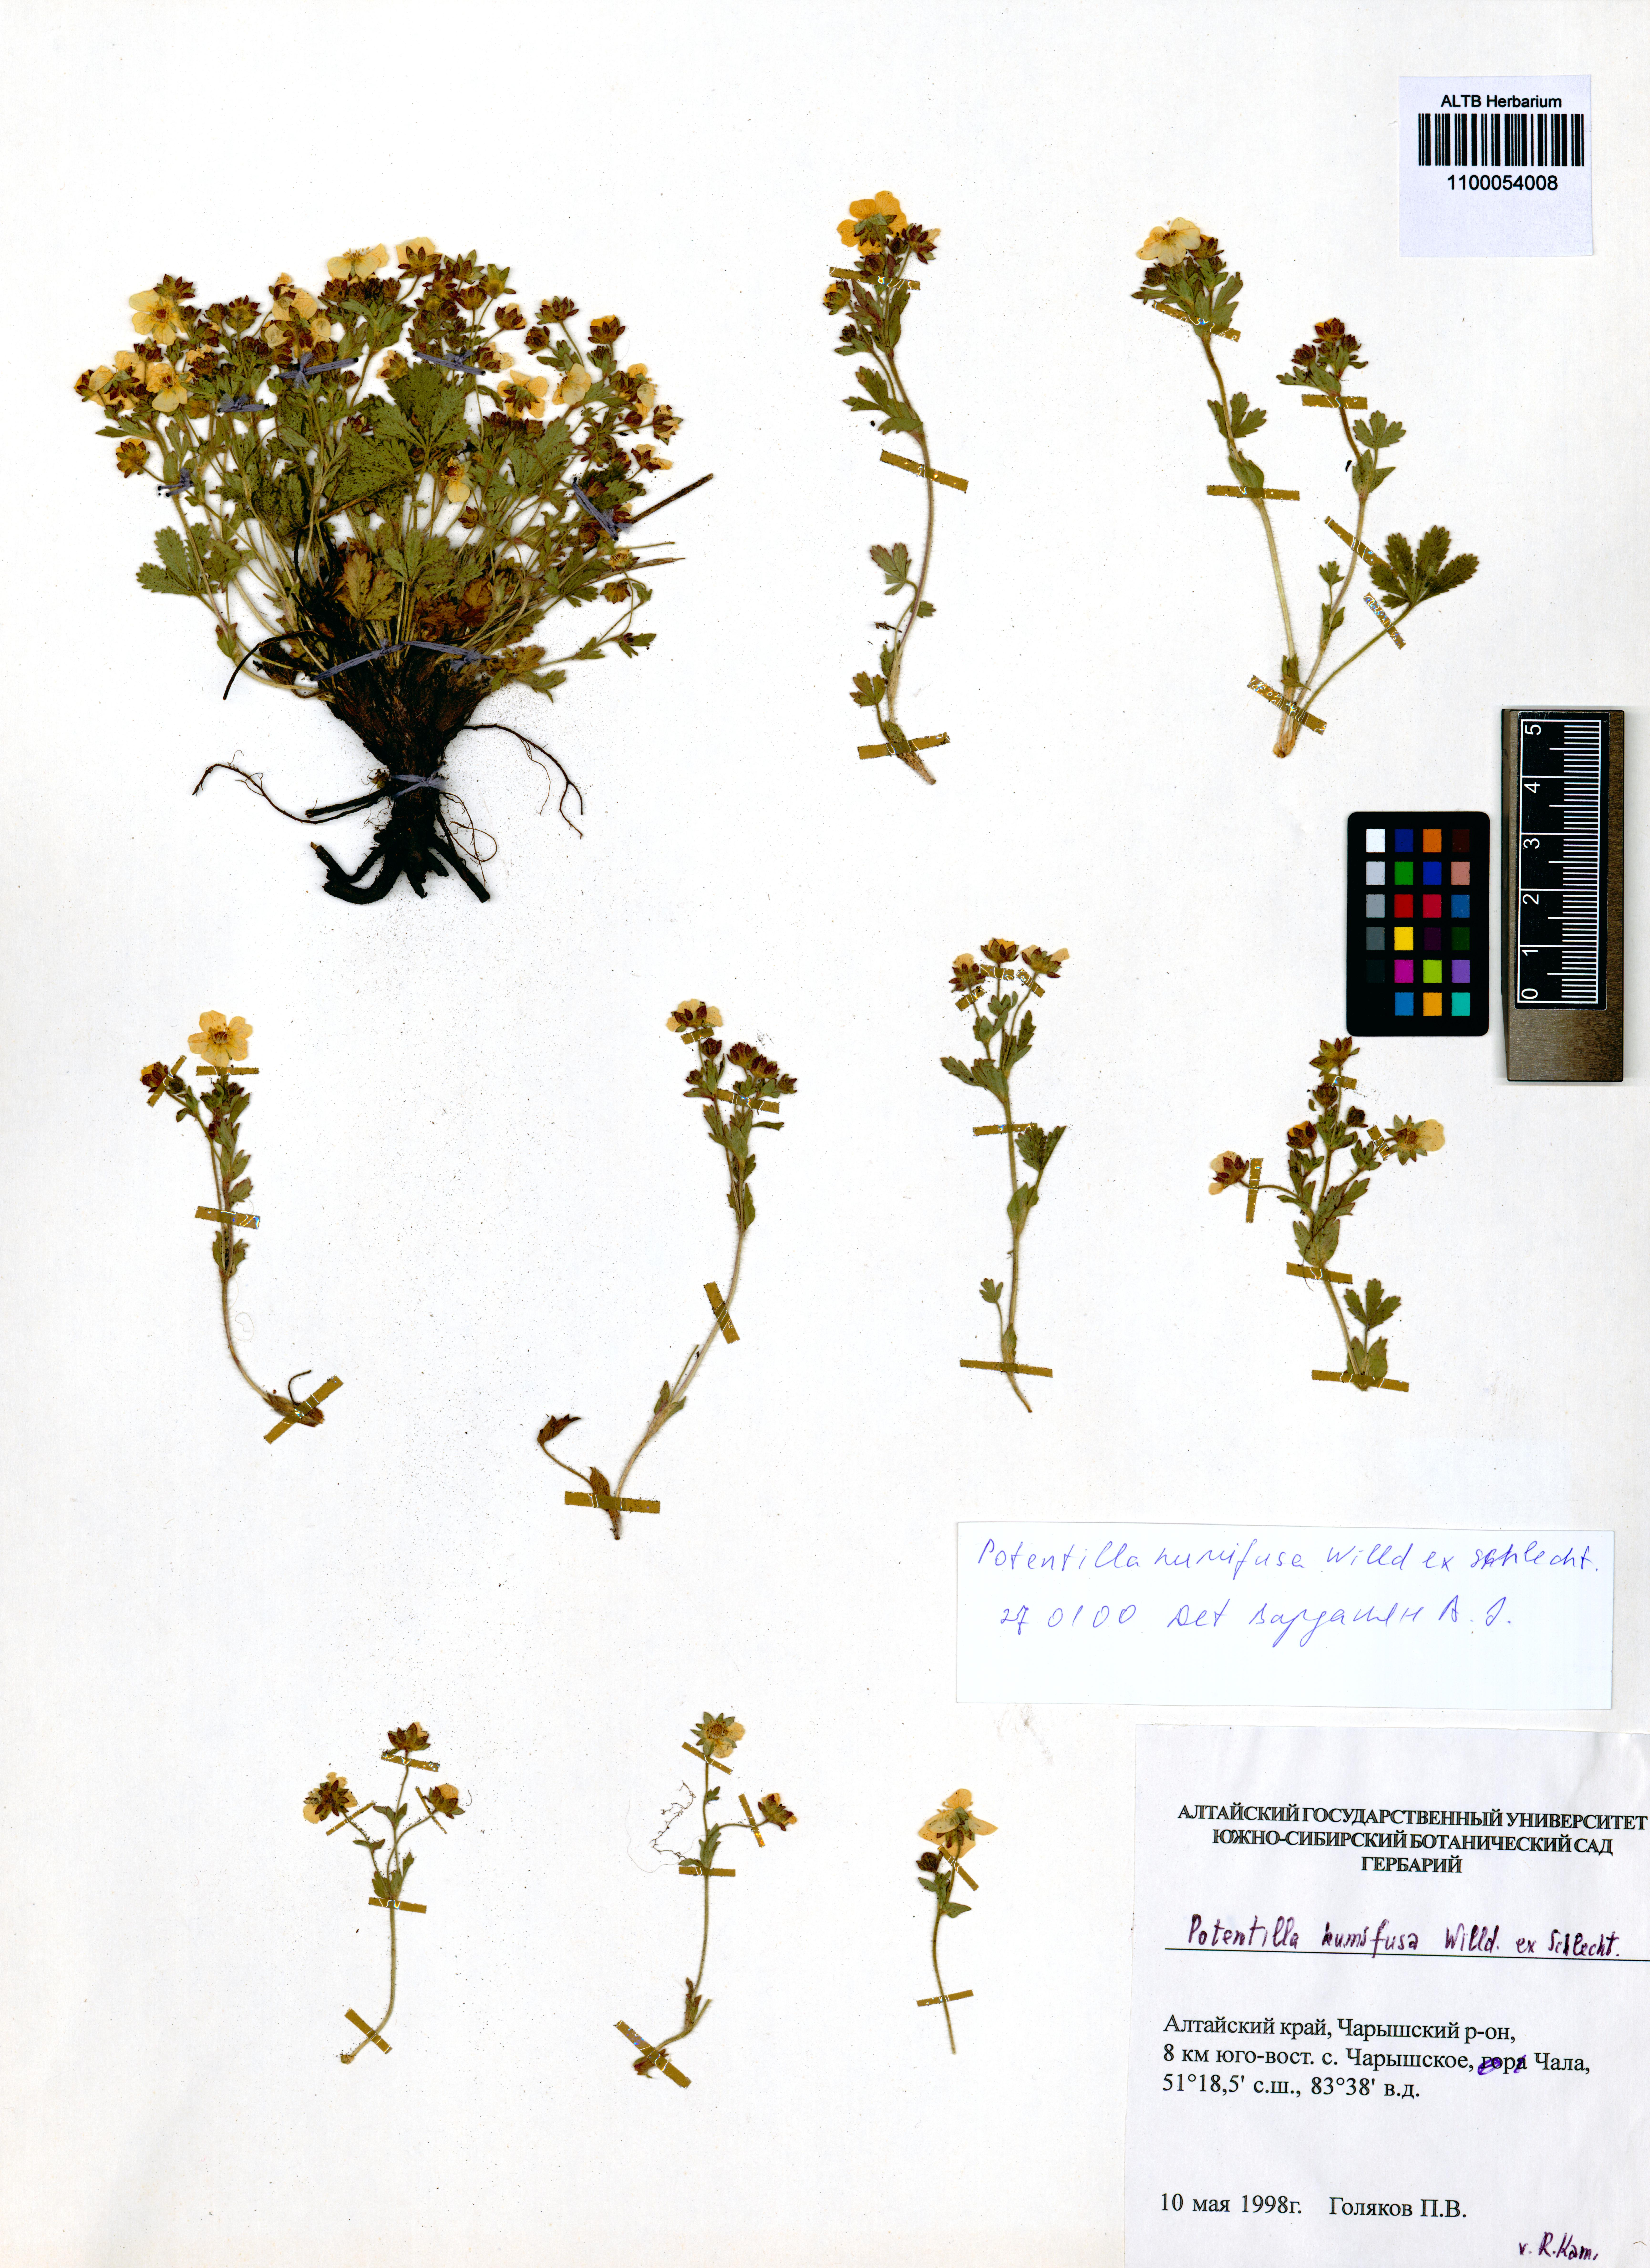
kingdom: Plantae
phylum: Tracheophyta
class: Magnoliopsida
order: Rosales
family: Rosaceae
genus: Potentilla
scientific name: Potentilla humifusa
